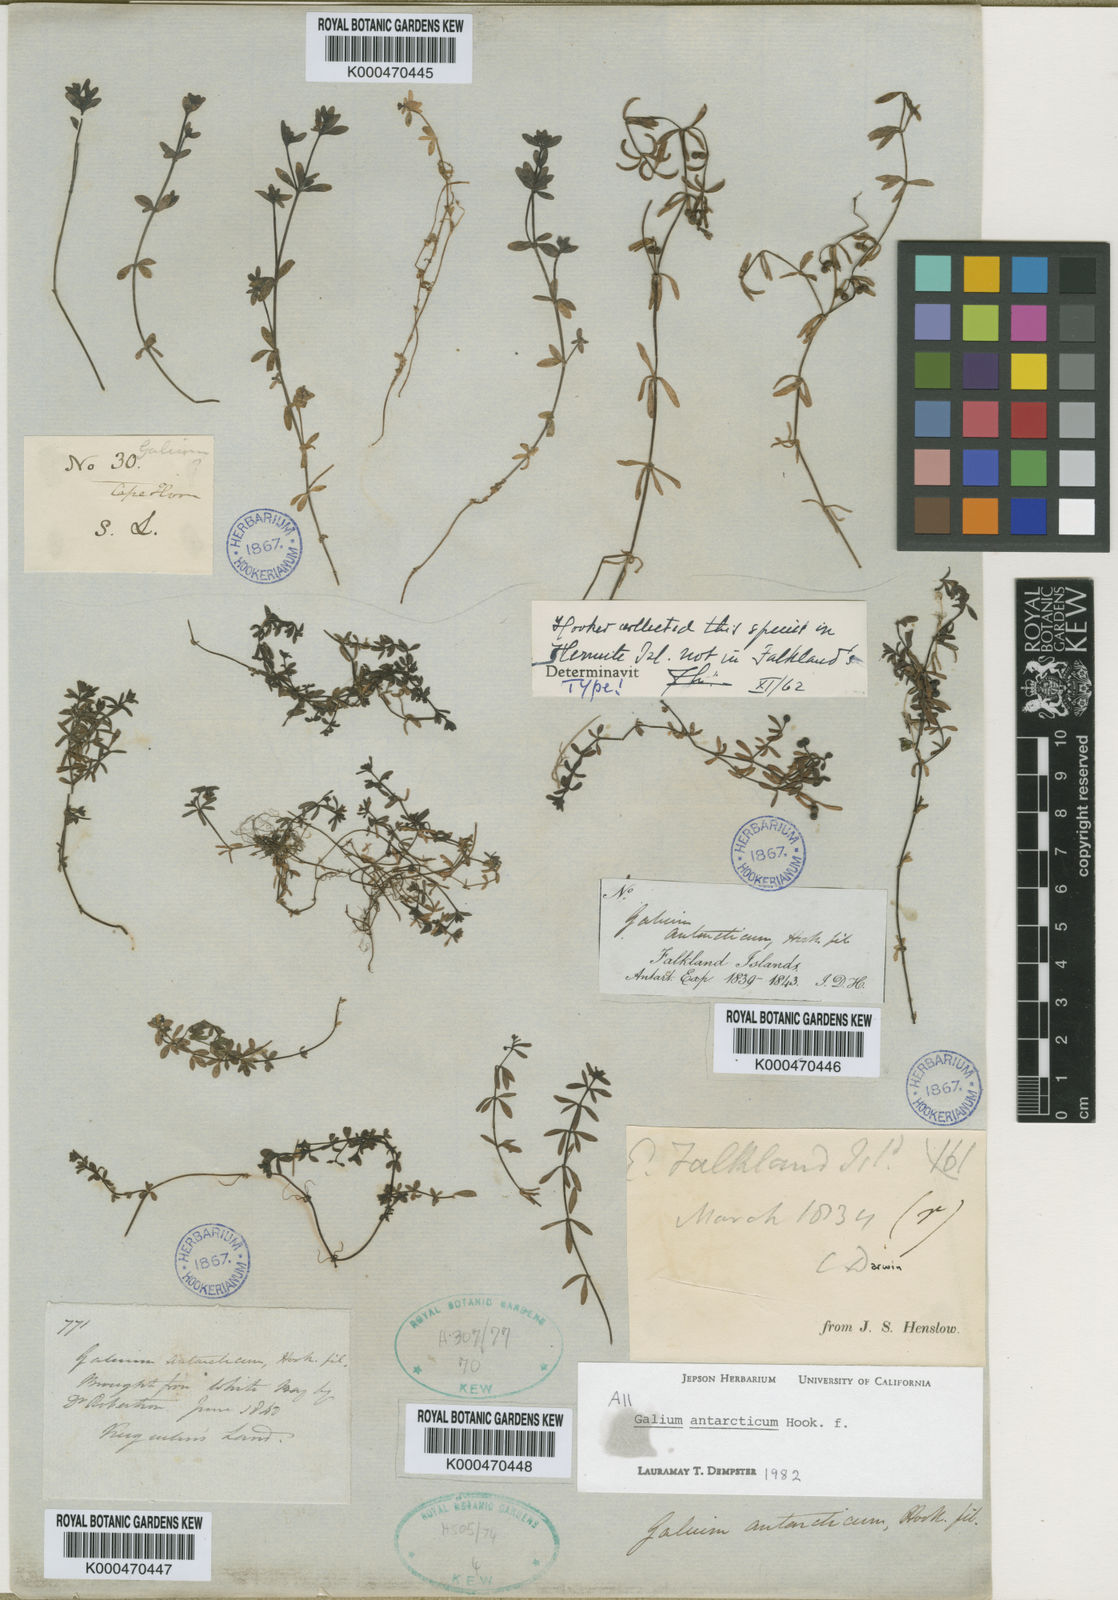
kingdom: Plantae
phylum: Tracheophyta
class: Magnoliopsida
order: Gentianales
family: Rubiaceae
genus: Galium
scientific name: Galium antarcticum
